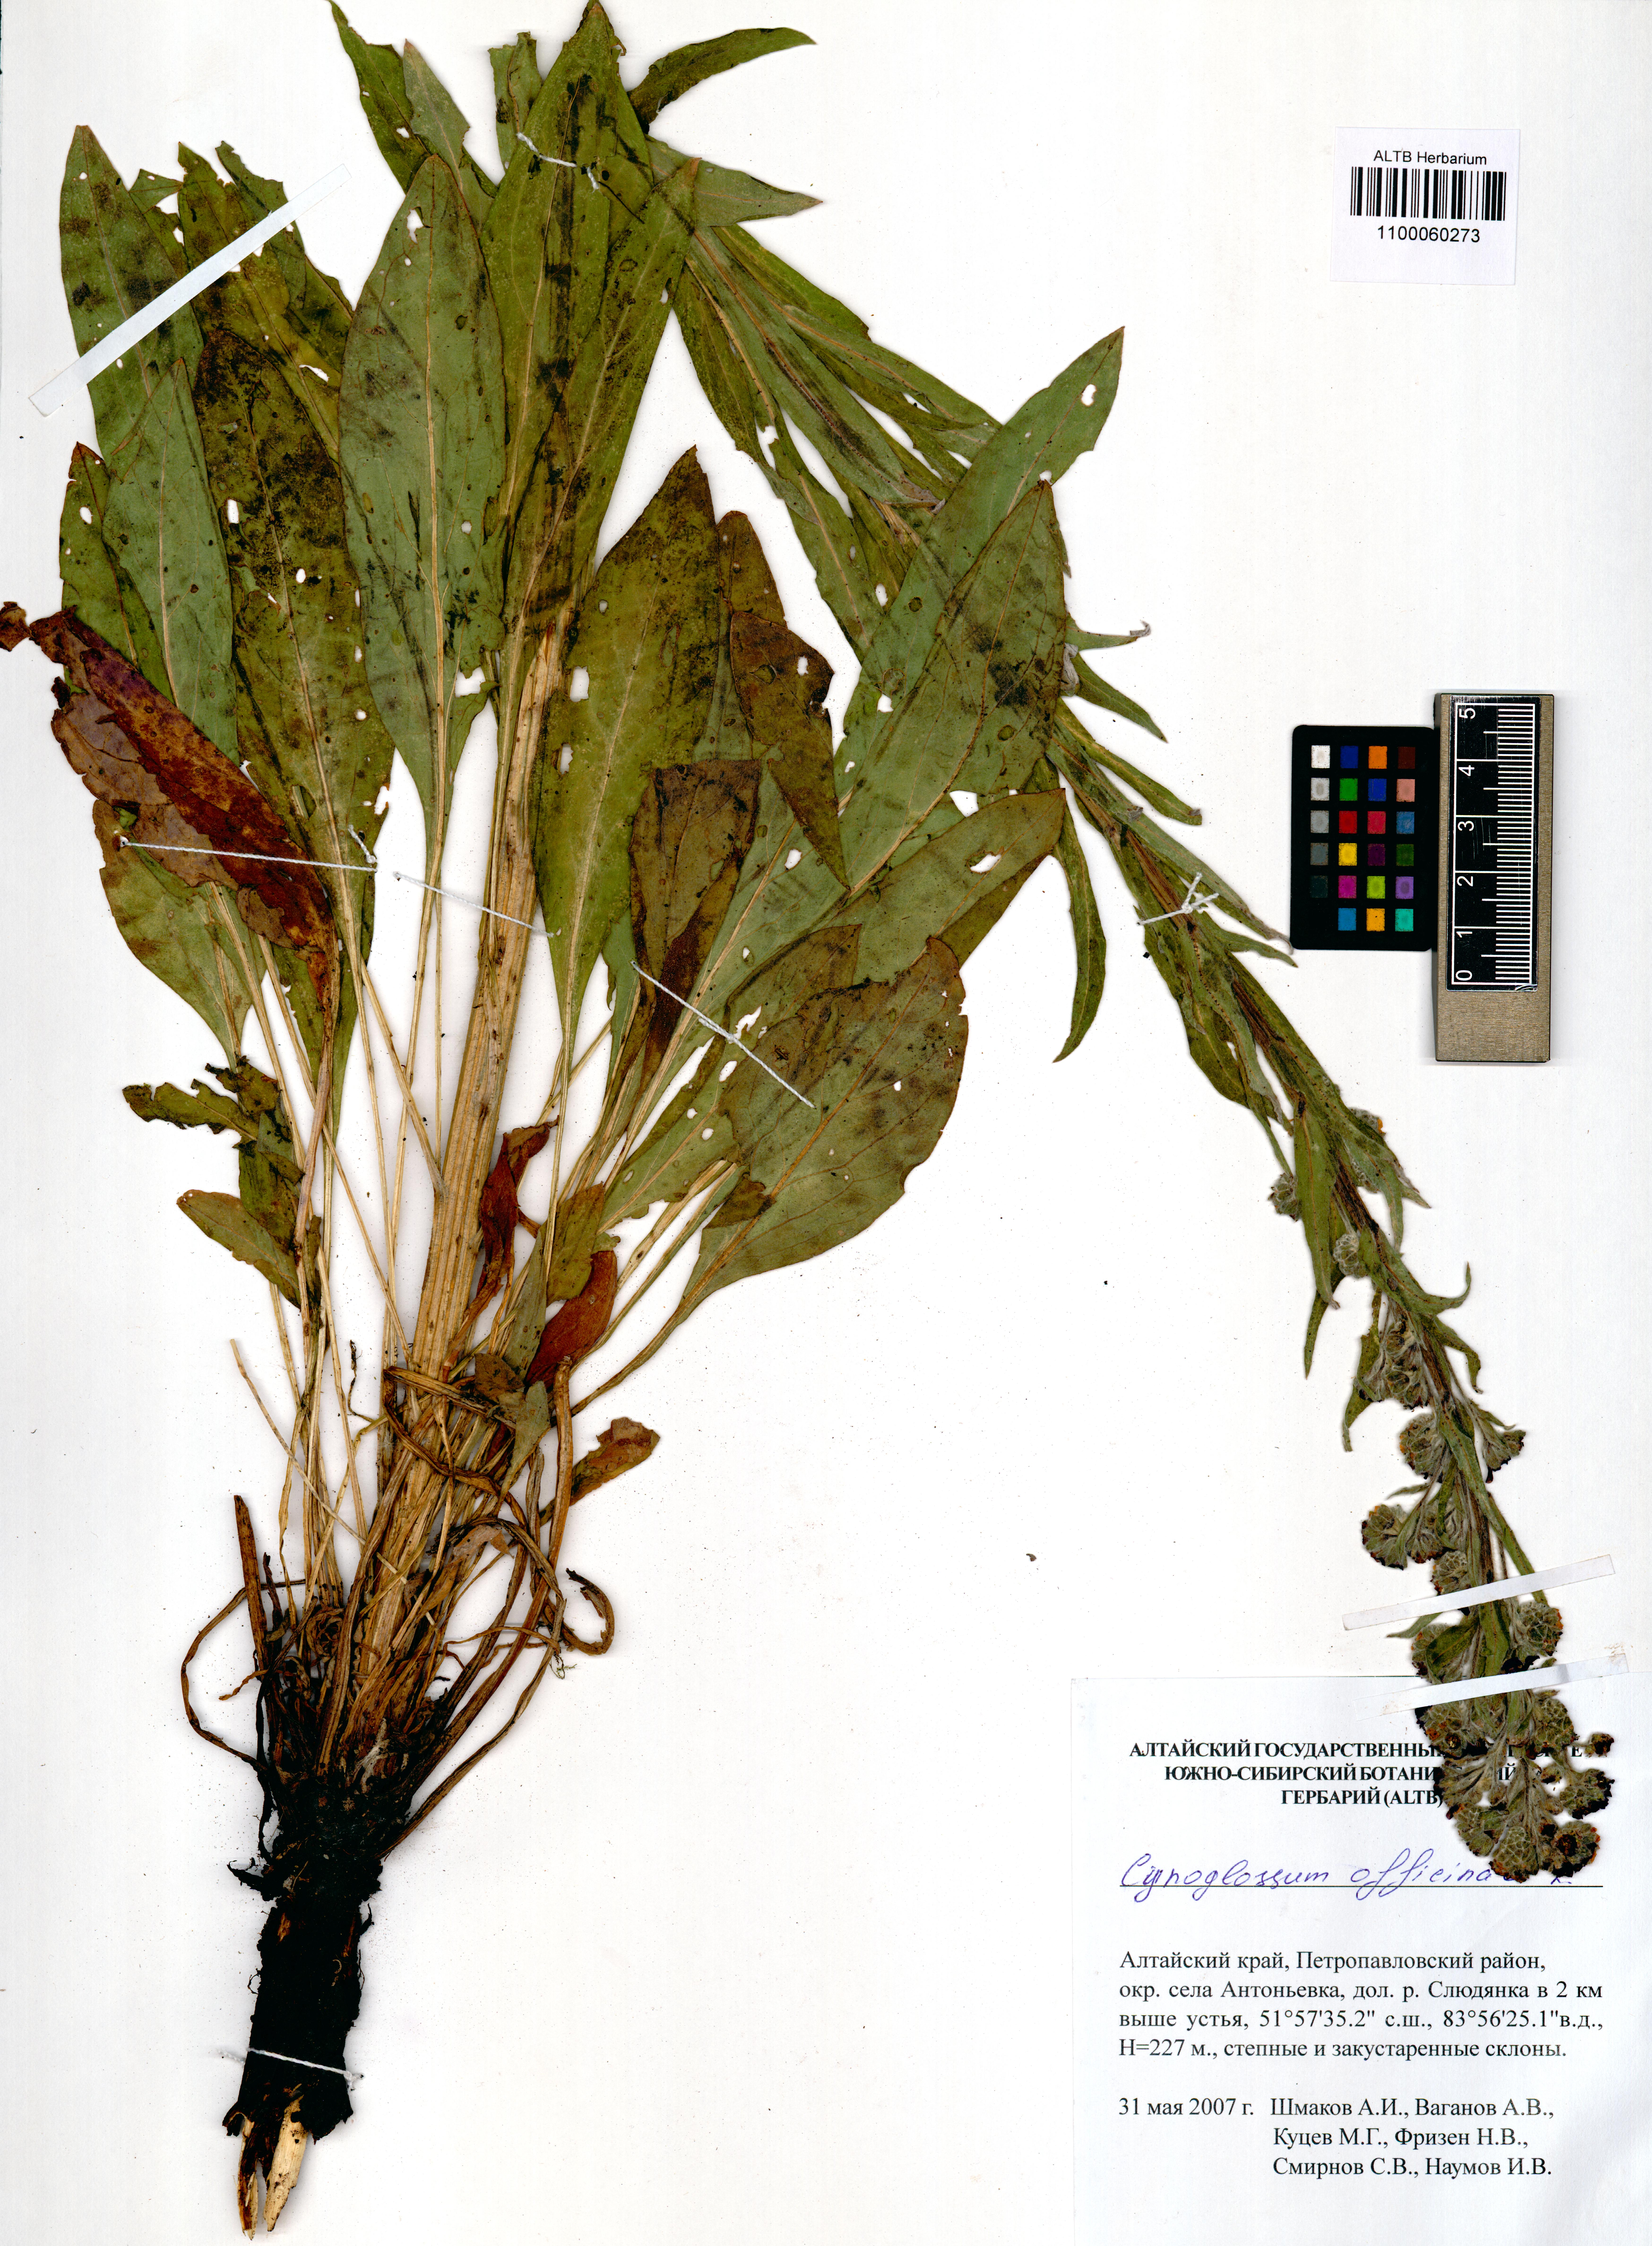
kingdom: Plantae
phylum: Tracheophyta
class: Magnoliopsida
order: Boraginales
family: Boraginaceae
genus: Cynoglossum
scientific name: Cynoglossum officinale
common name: Hound's-tongue
